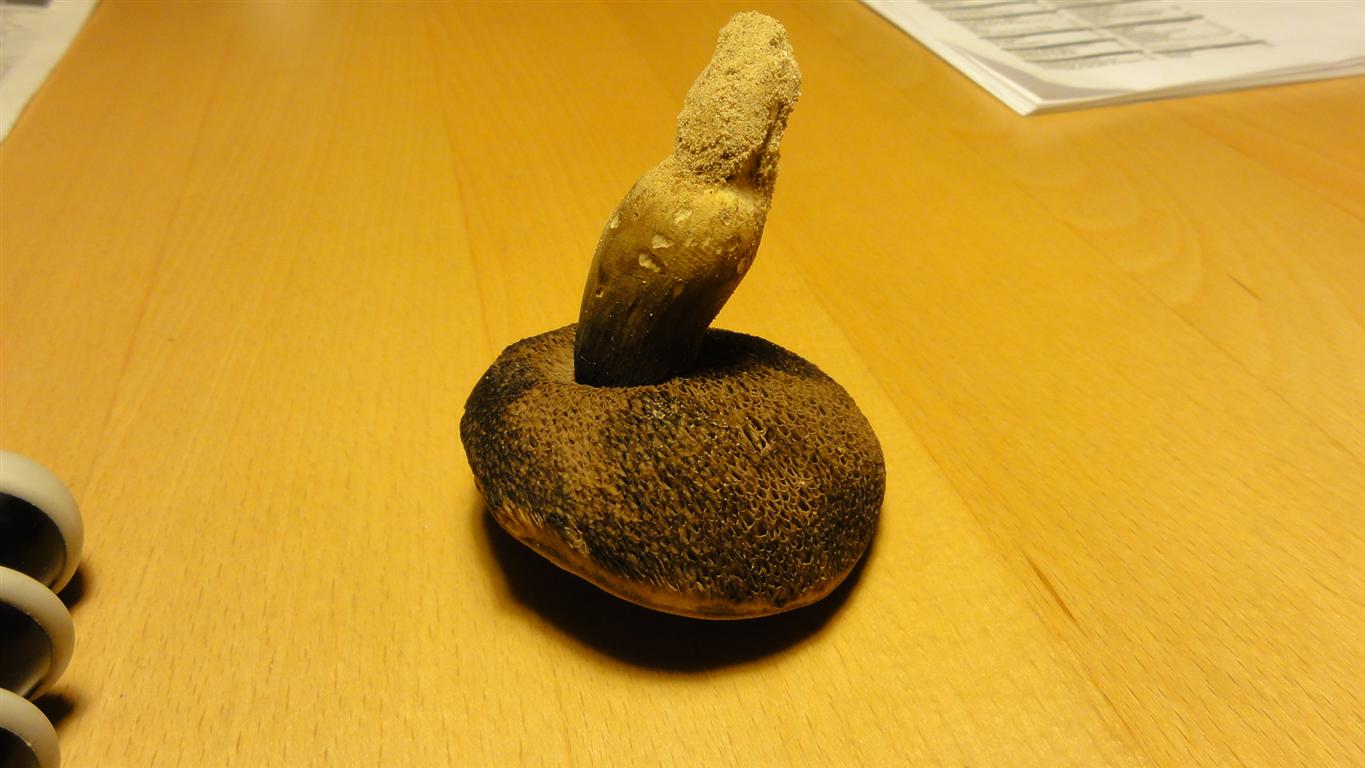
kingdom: Fungi
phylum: Basidiomycota
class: Agaricomycetes
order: Boletales
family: Boletaceae
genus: Porphyrellus
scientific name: Porphyrellus porphyrosporus
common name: sodrørhat
